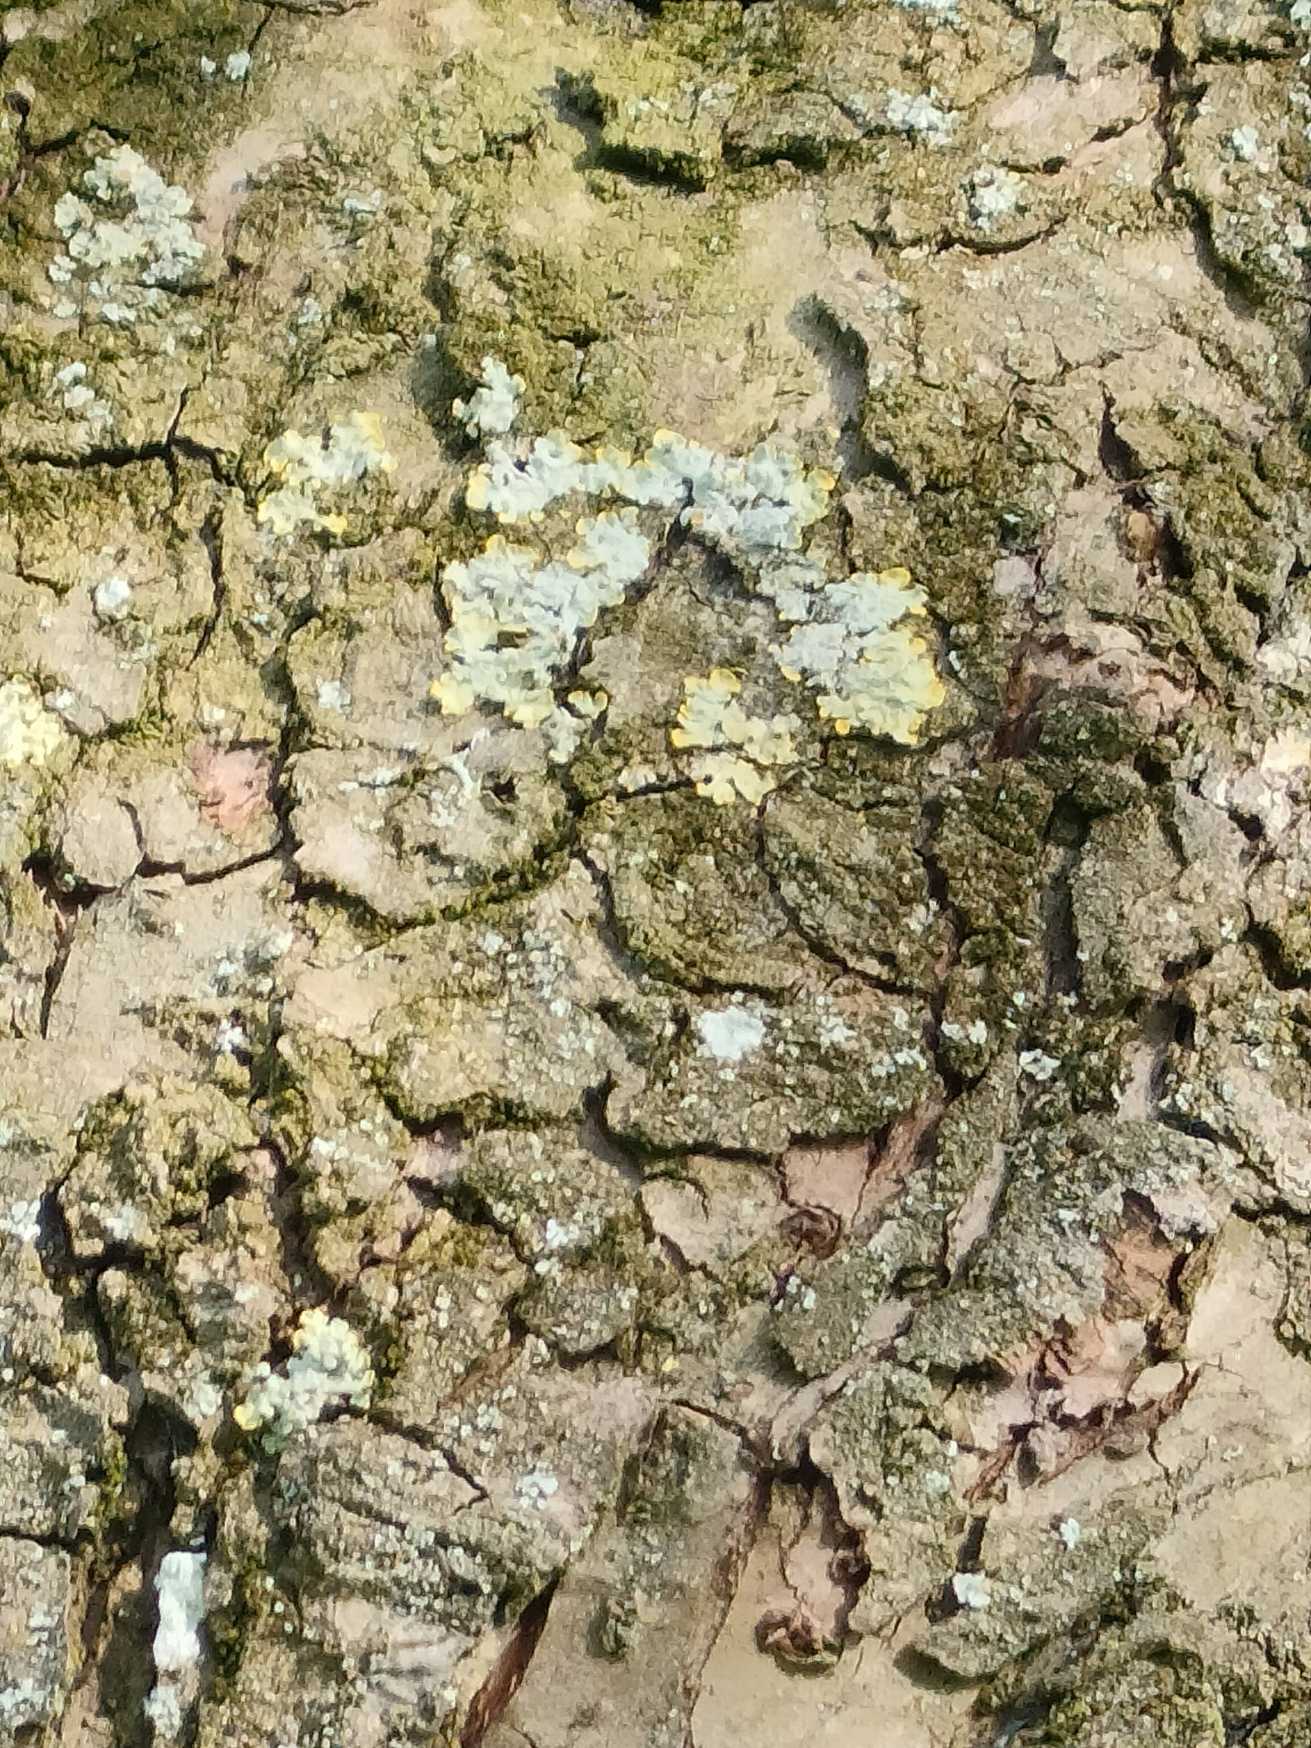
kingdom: Fungi
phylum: Ascomycota
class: Lecanoromycetes
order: Teloschistales
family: Teloschistaceae
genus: Xanthoria
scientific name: Xanthoria parietina
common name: Almindelig væggelav
